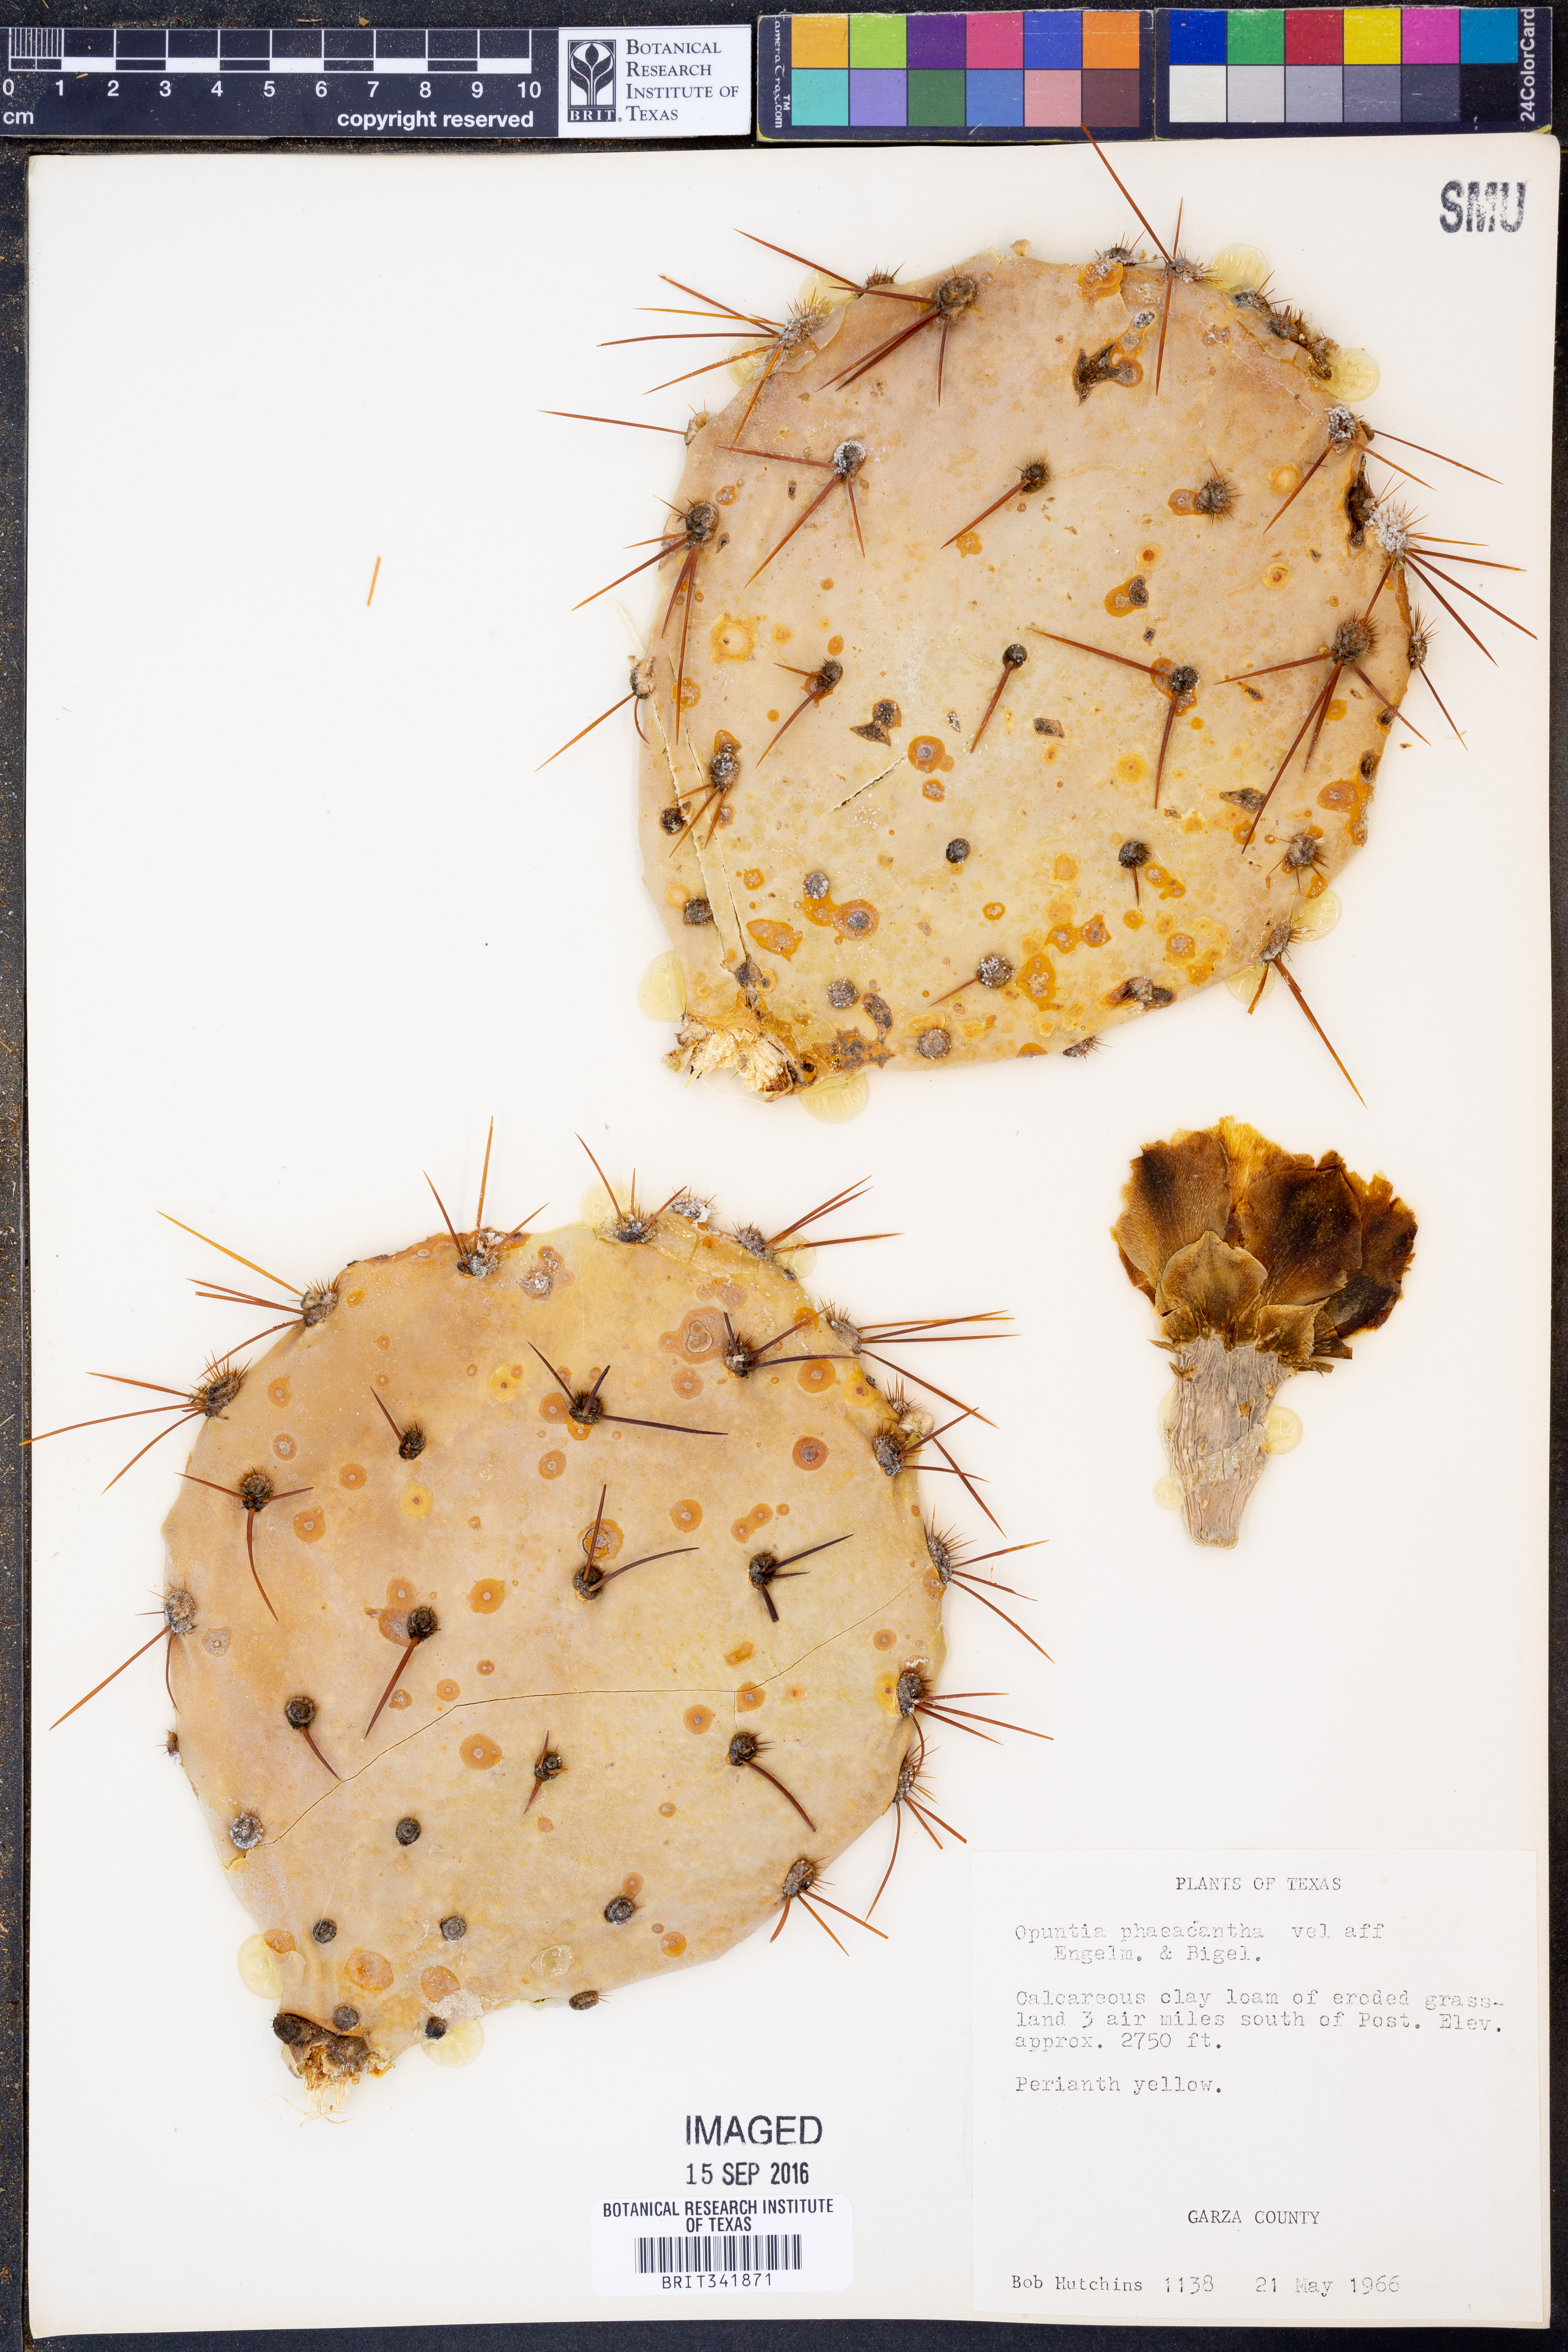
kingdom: Plantae
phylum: Tracheophyta
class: Magnoliopsida
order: Caryophyllales
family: Cactaceae
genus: Opuntia
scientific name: Opuntia phaeacantha
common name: New mexico prickly-pear
